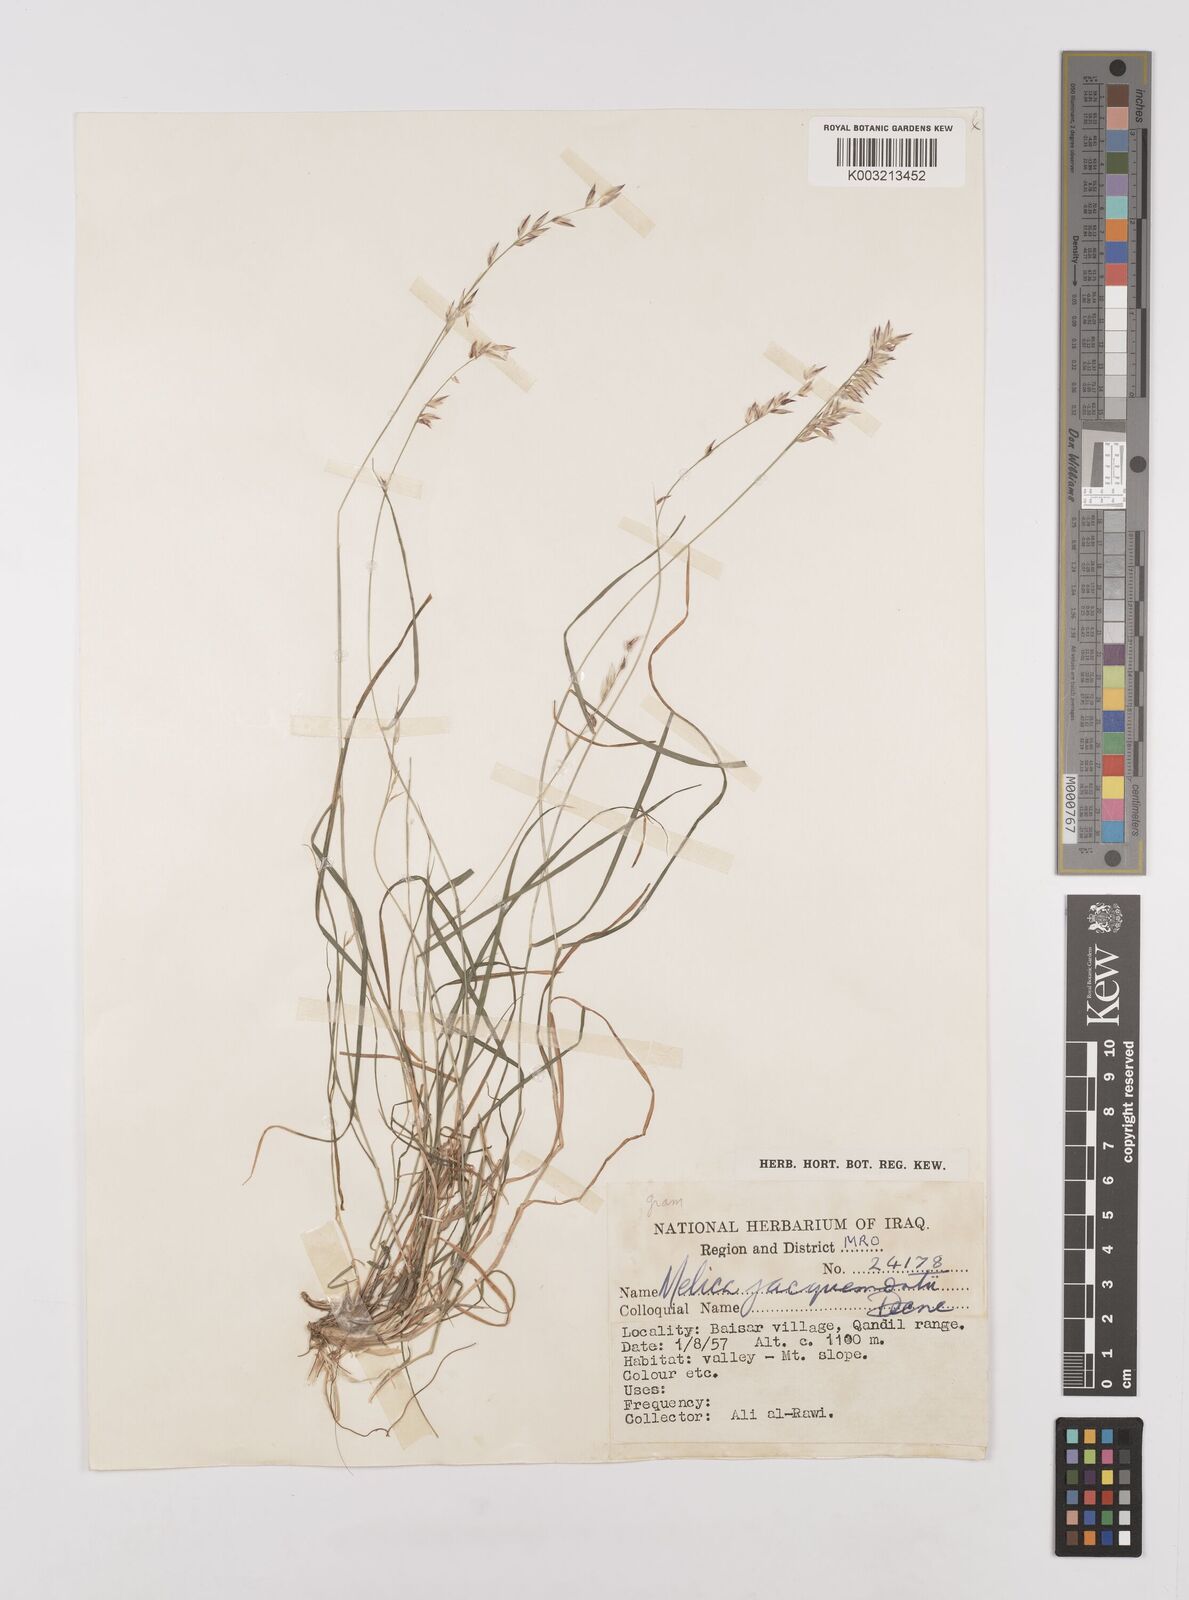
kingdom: Plantae
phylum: Tracheophyta
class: Liliopsida
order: Poales
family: Poaceae
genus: Melica
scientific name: Melica persica
